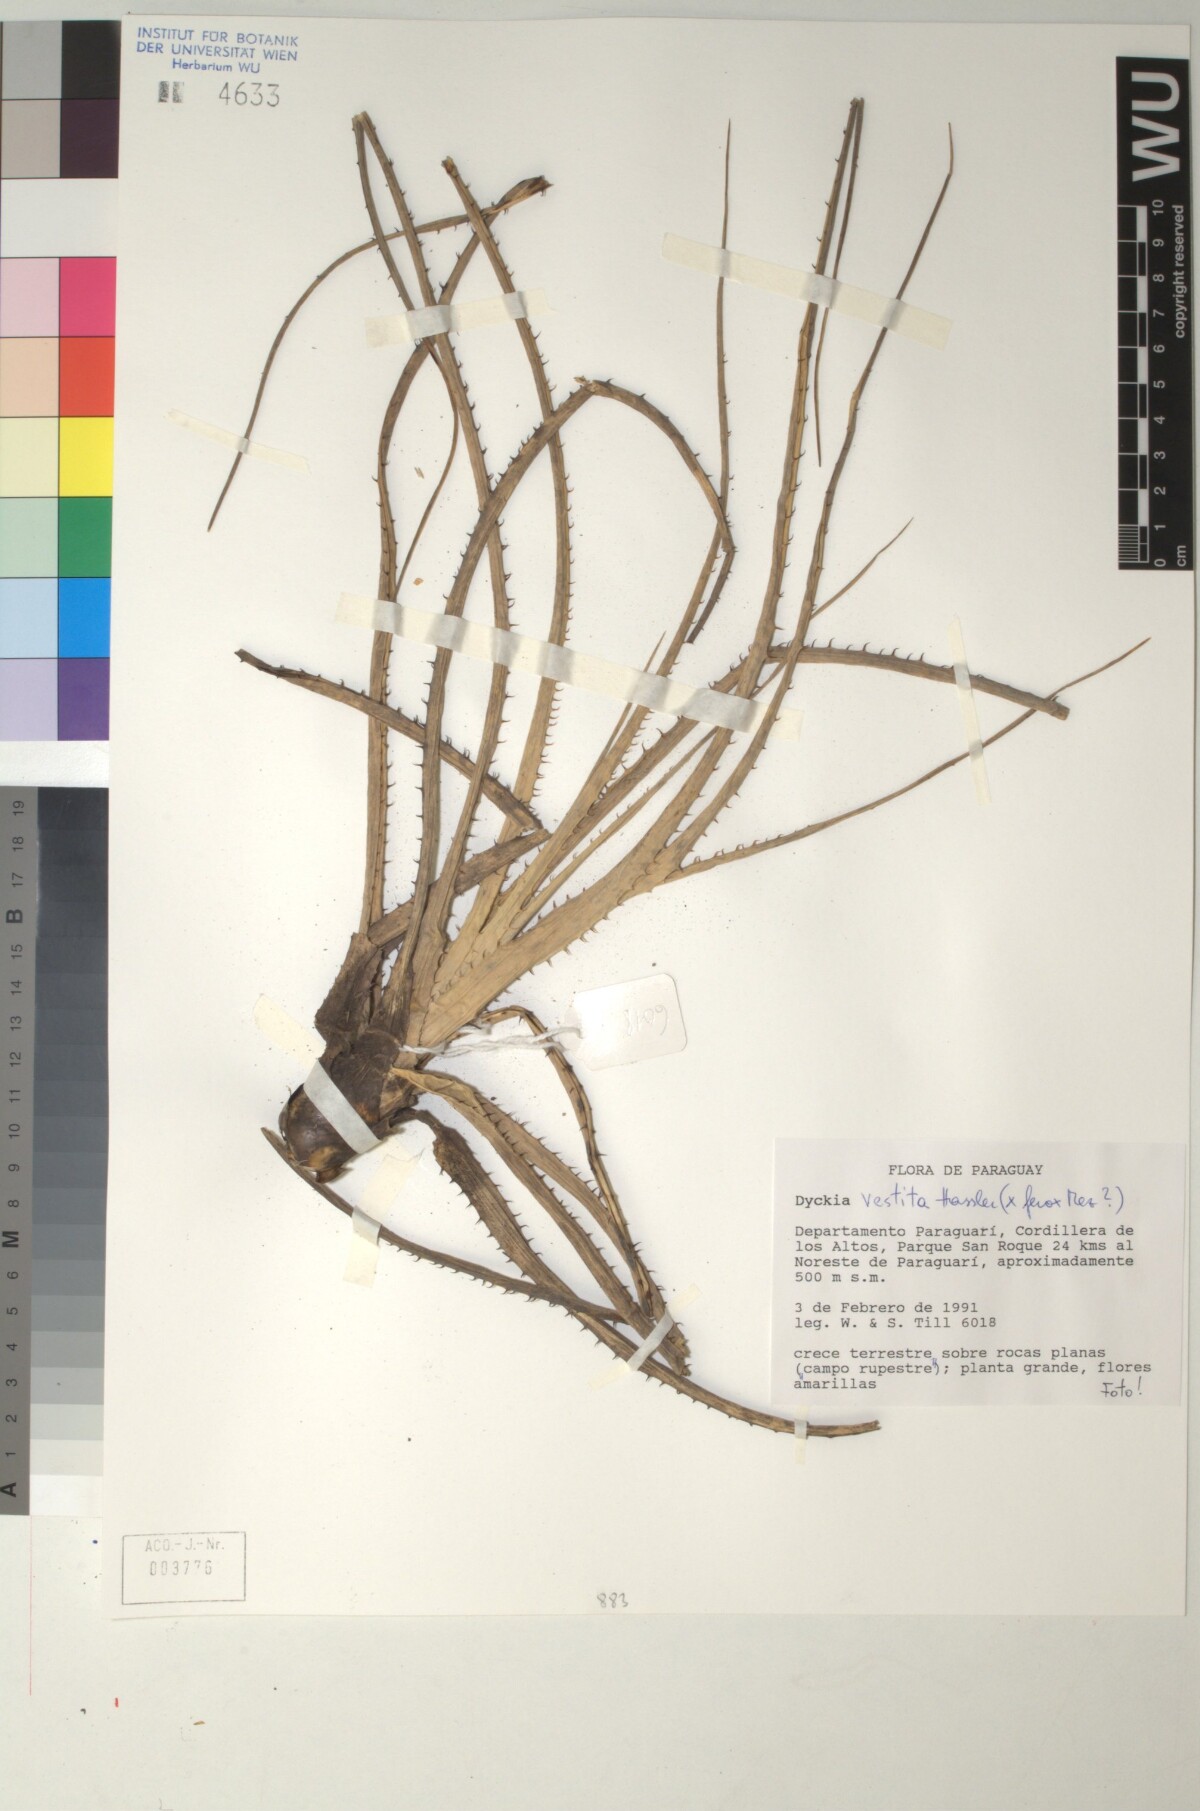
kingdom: Plantae
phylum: Tracheophyta
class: Liliopsida
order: Poales
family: Bromeliaceae
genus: Dyckia
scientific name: Dyckia vestita
